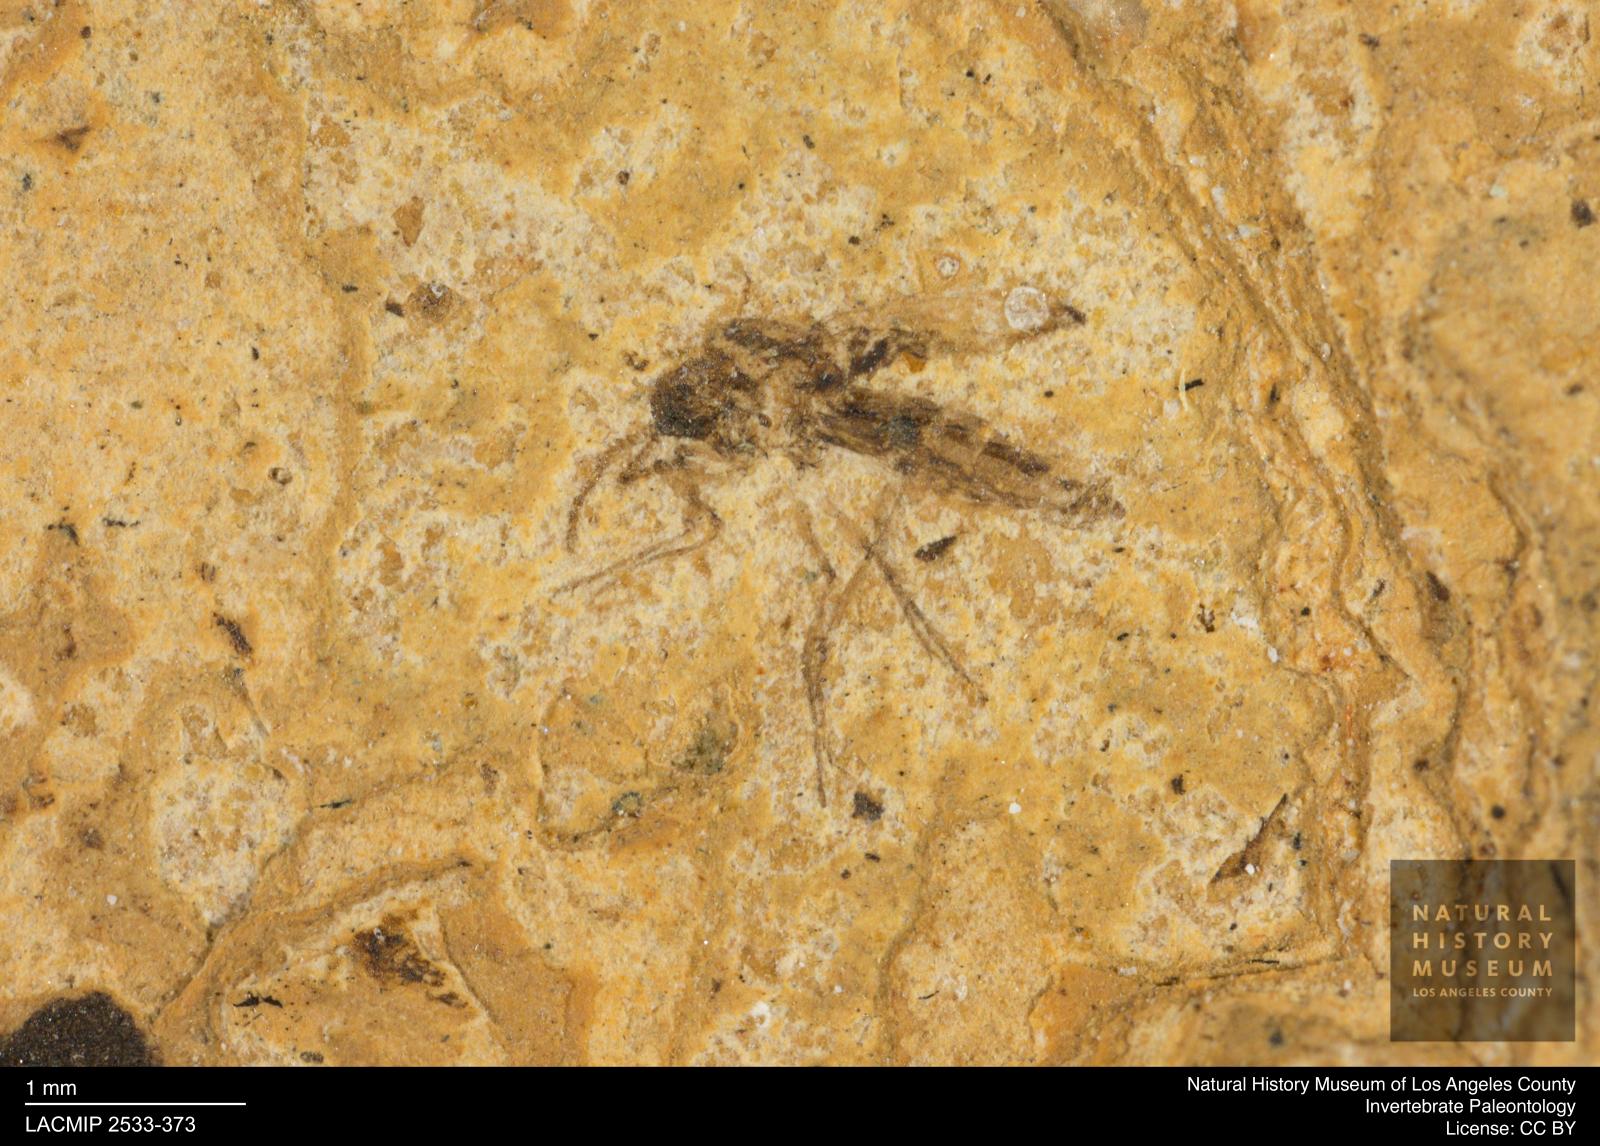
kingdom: Animalia
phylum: Arthropoda
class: Insecta
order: Diptera
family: Ceratopogonidae
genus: Culicoides
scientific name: Culicoides gracilior
